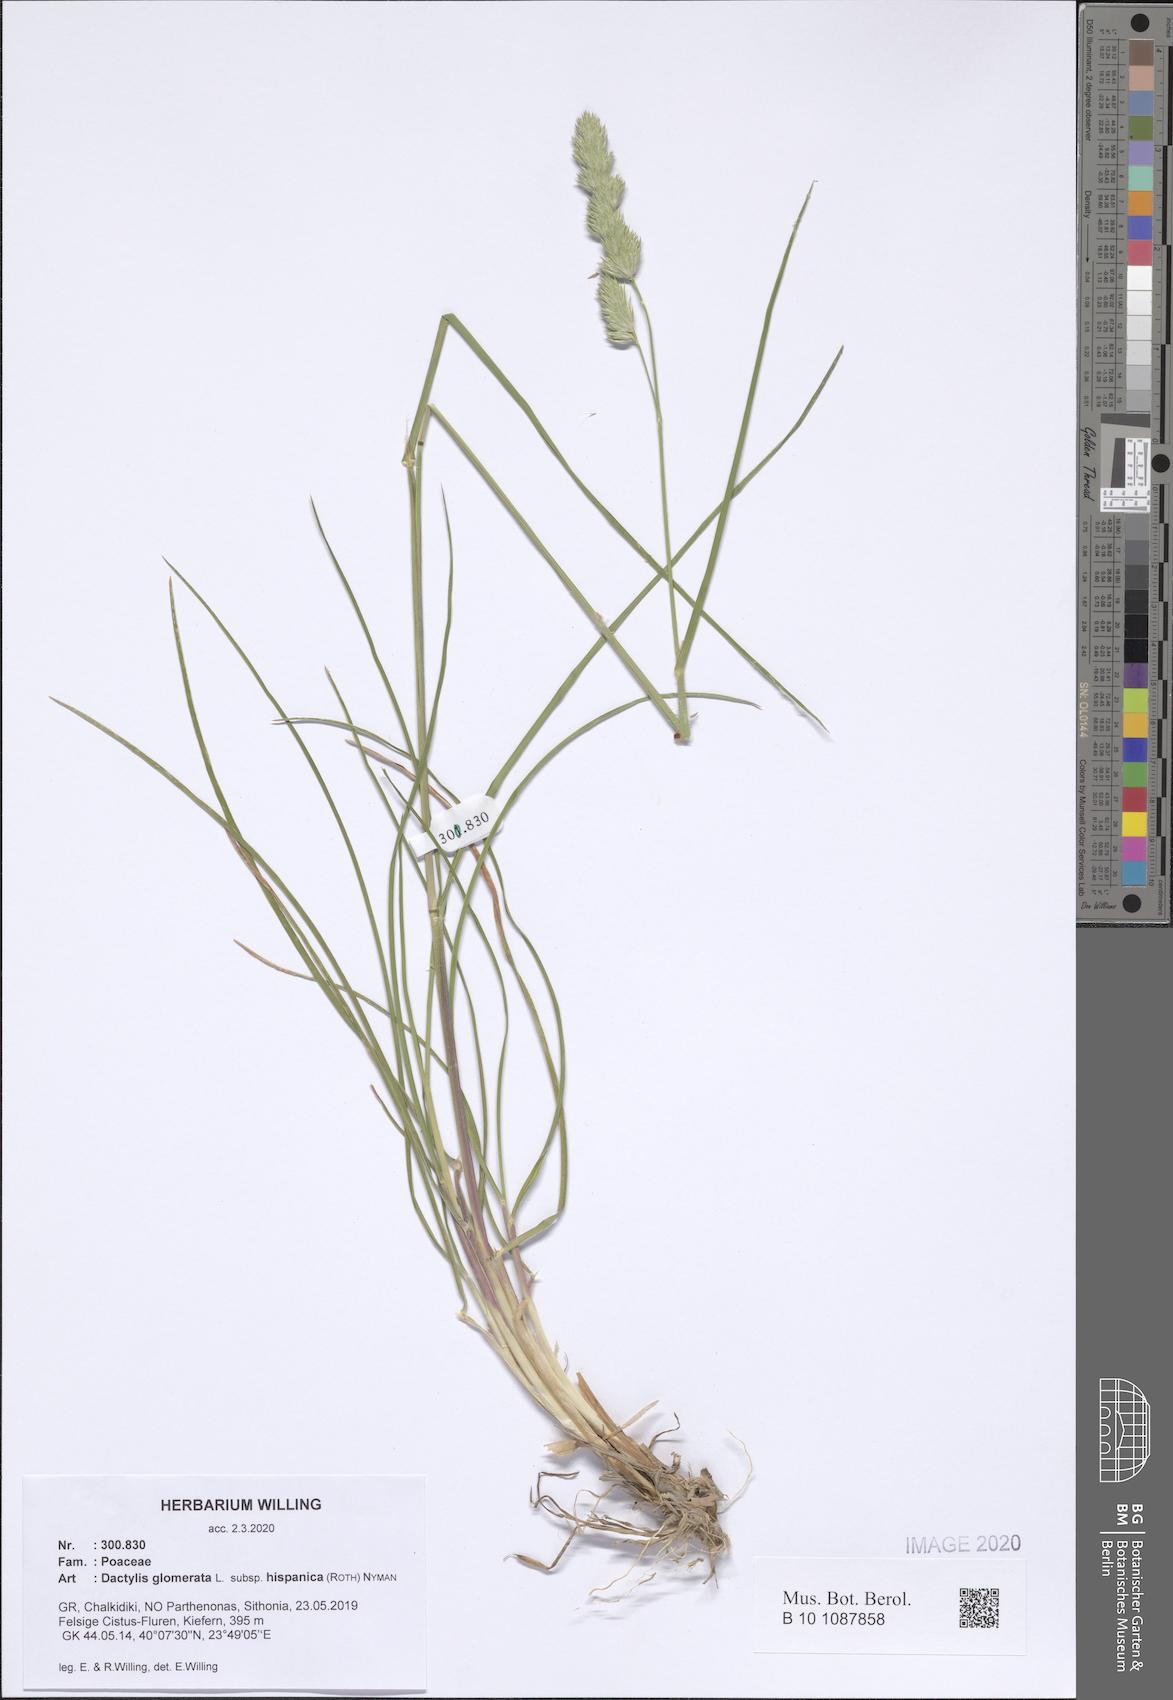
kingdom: Plantae
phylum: Tracheophyta
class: Liliopsida
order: Poales
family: Poaceae
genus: Dactylis
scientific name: Dactylis glomerata
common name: Orchardgrass
